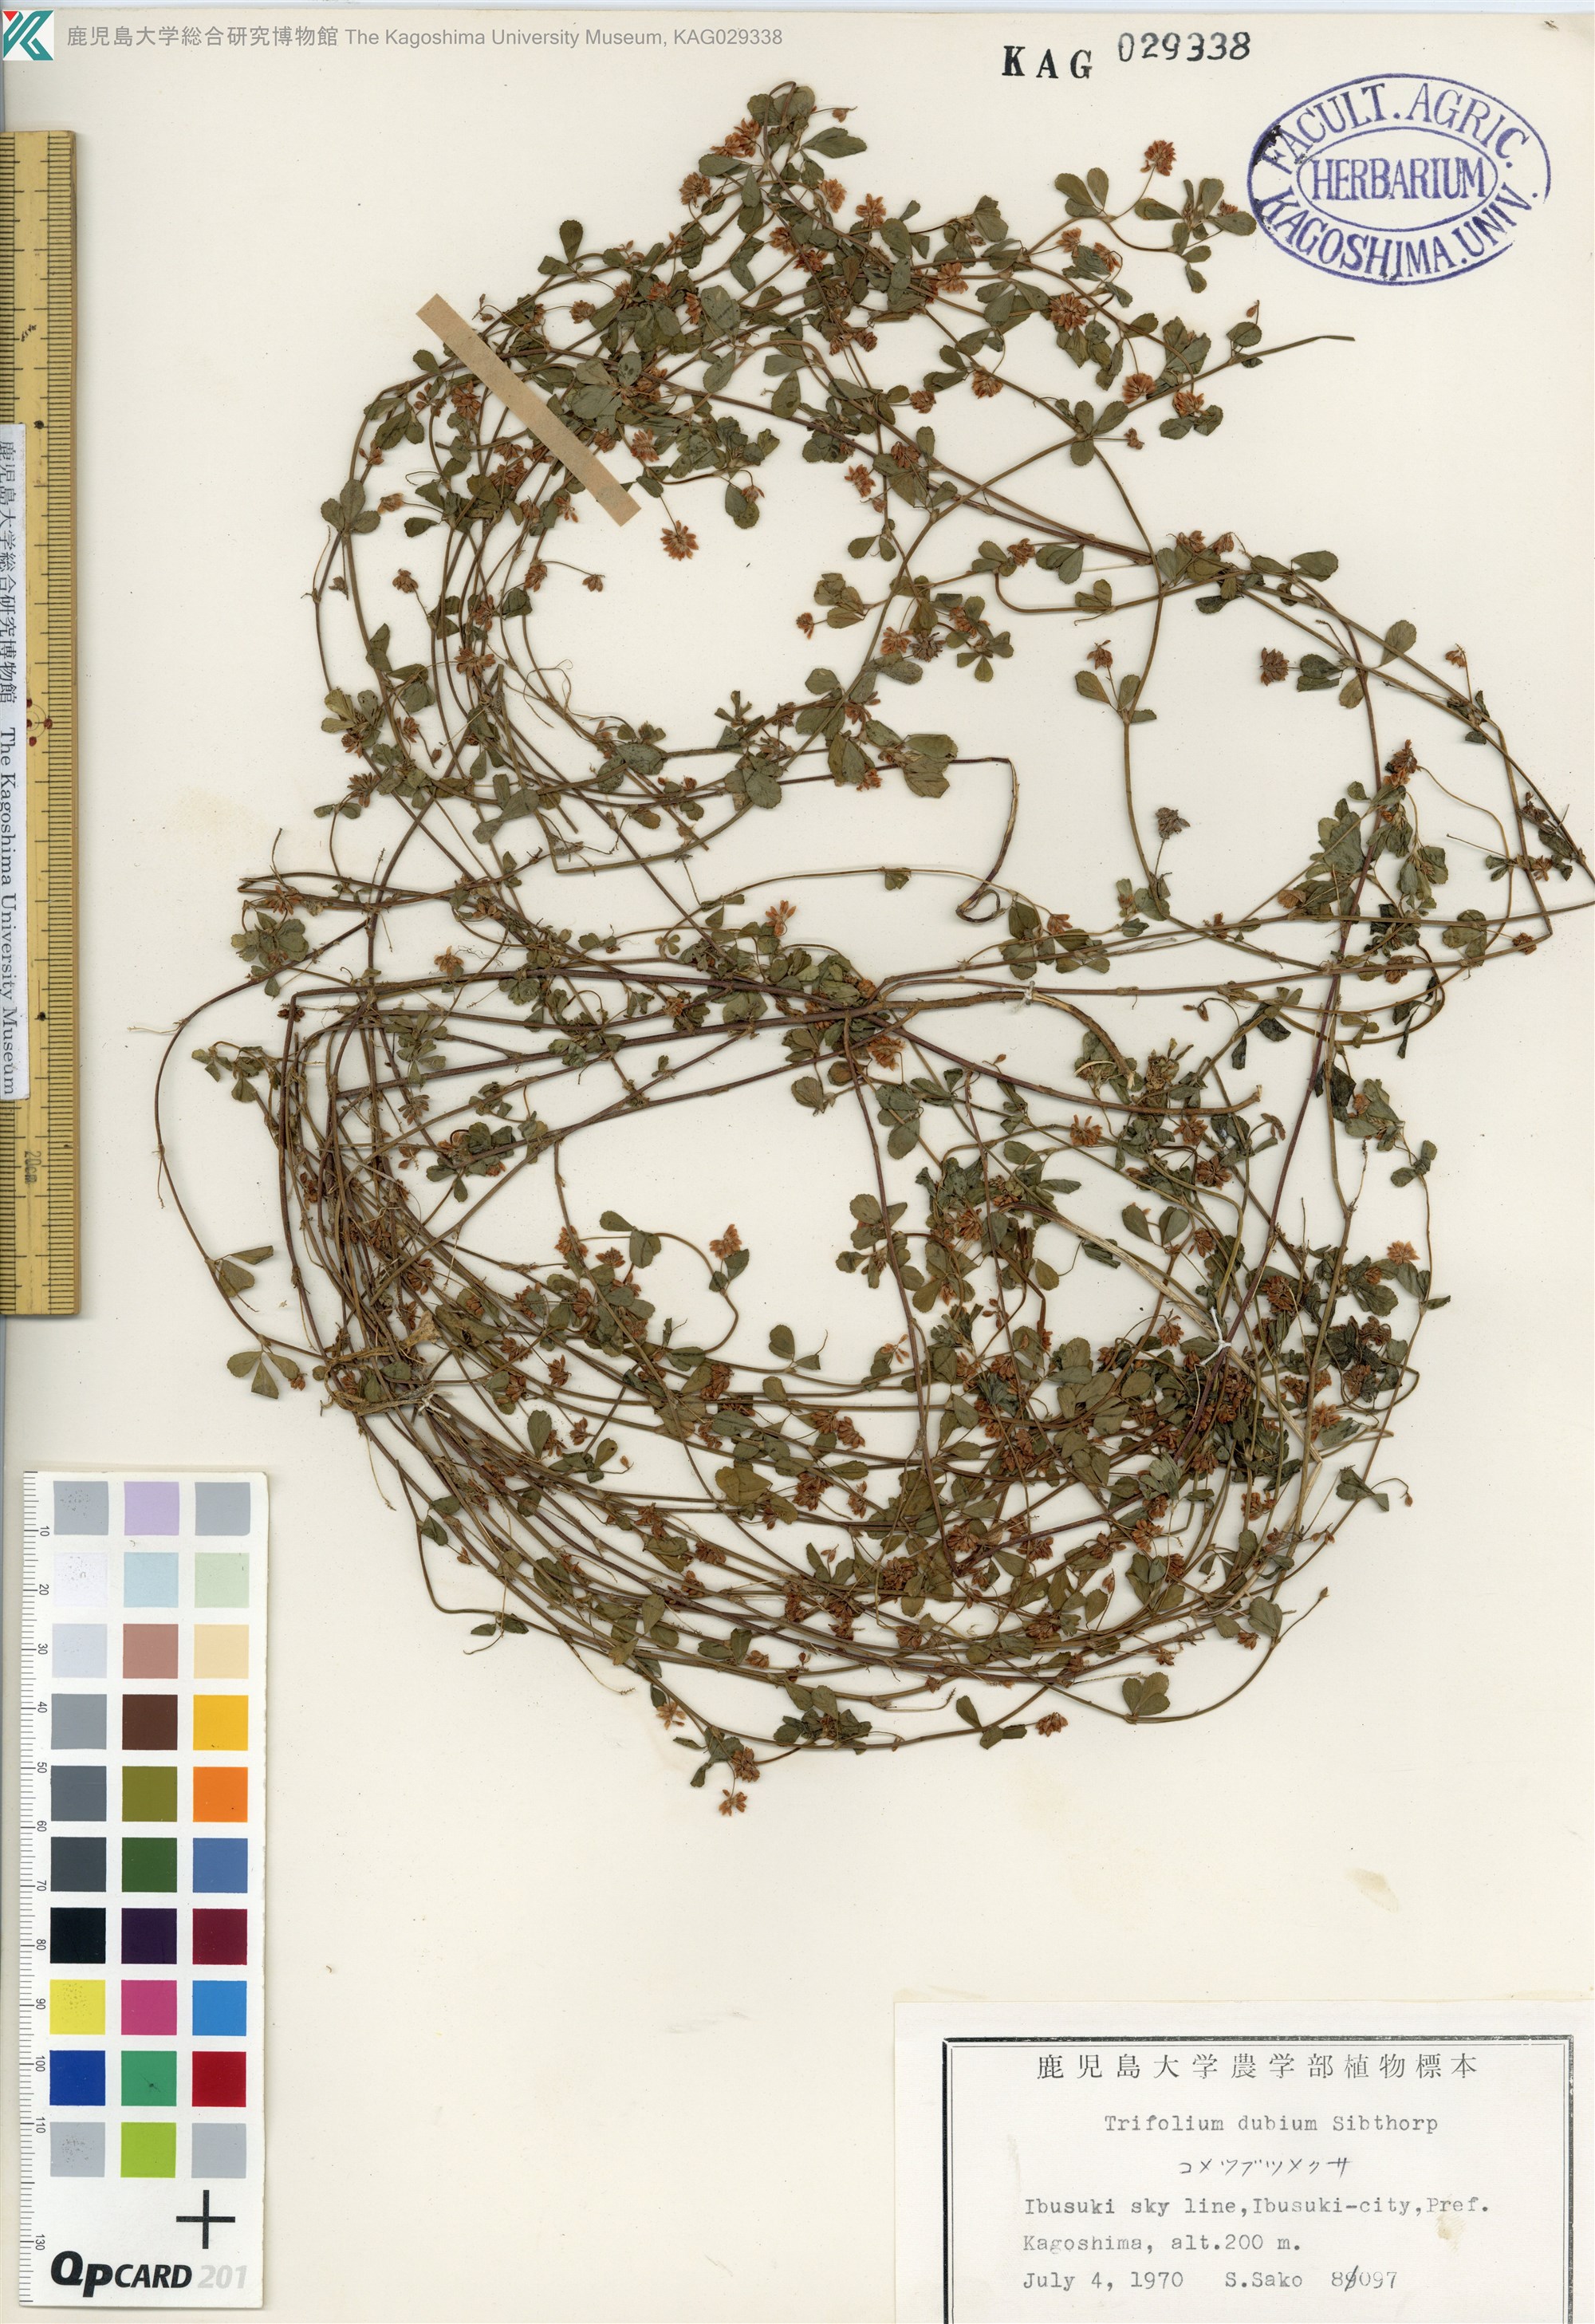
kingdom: Plantae
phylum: Tracheophyta
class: Magnoliopsida
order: Fabales
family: Fabaceae
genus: Trifolium
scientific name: Trifolium dubium
